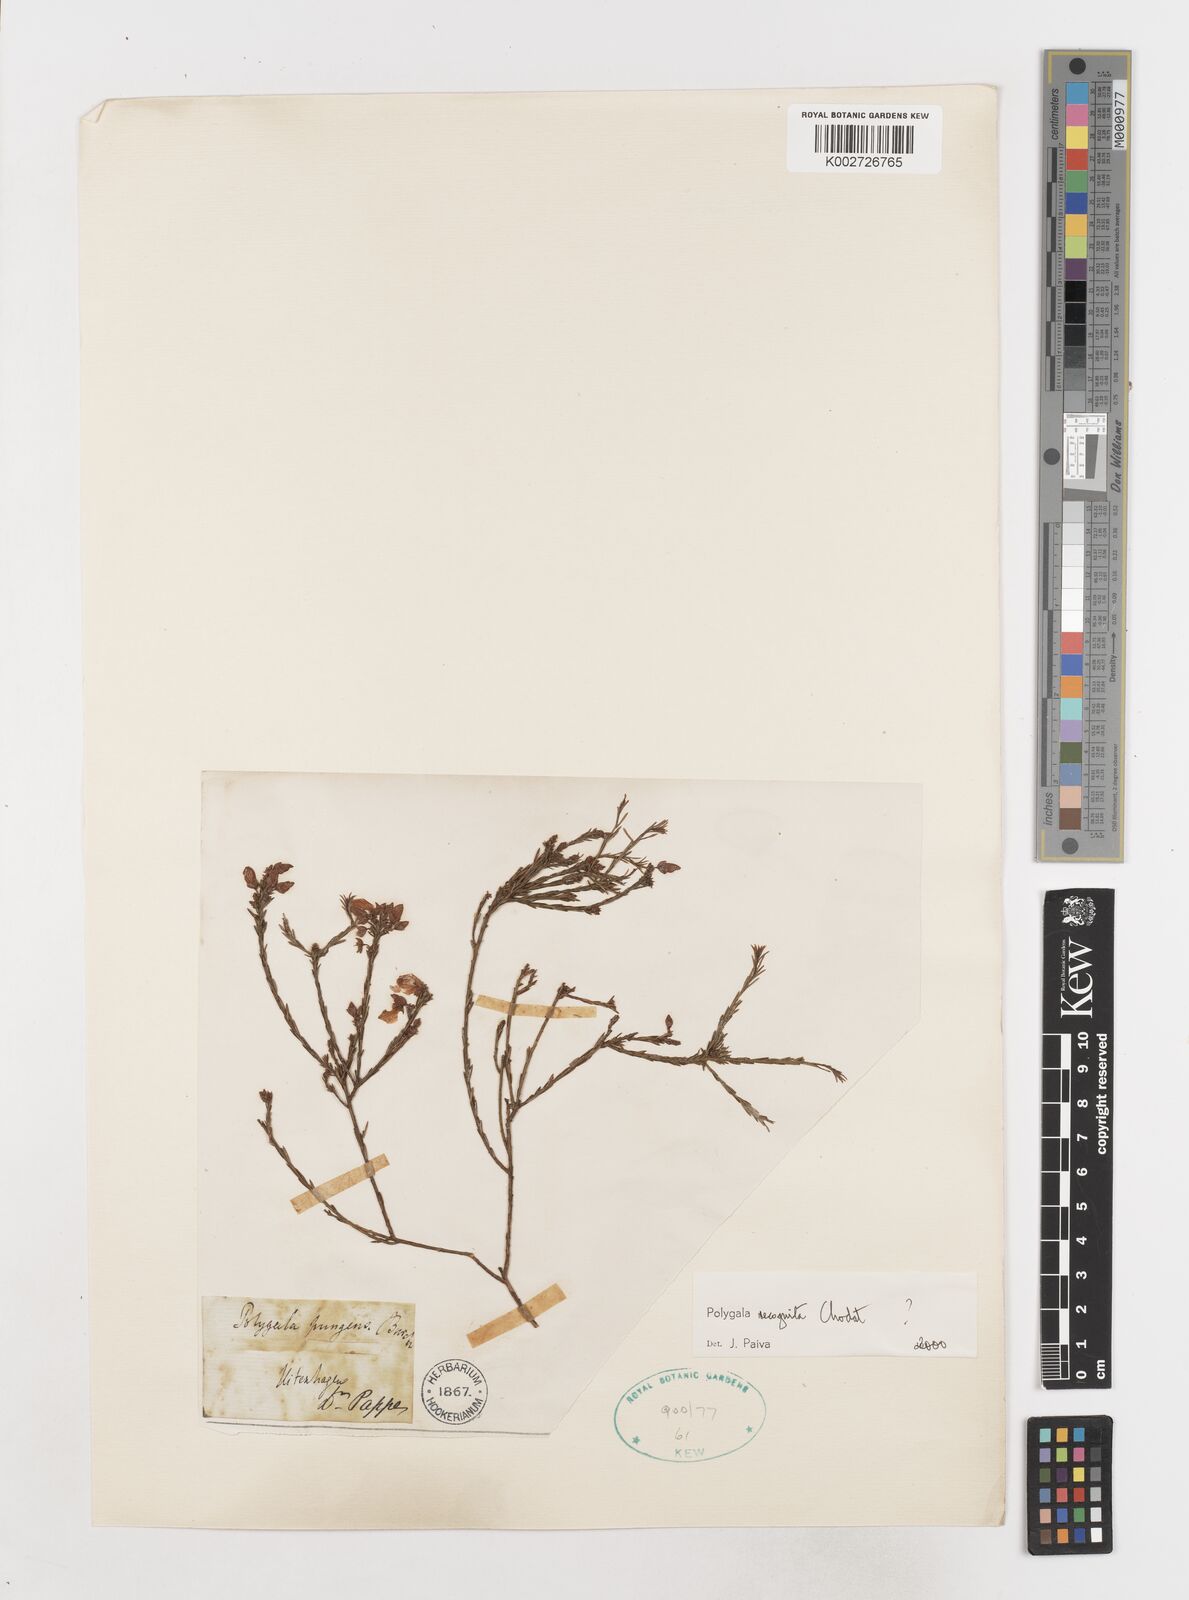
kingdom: Plantae
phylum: Tracheophyta
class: Magnoliopsida
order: Fabales
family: Polygalaceae
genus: Polygala
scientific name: Polygala recognita
